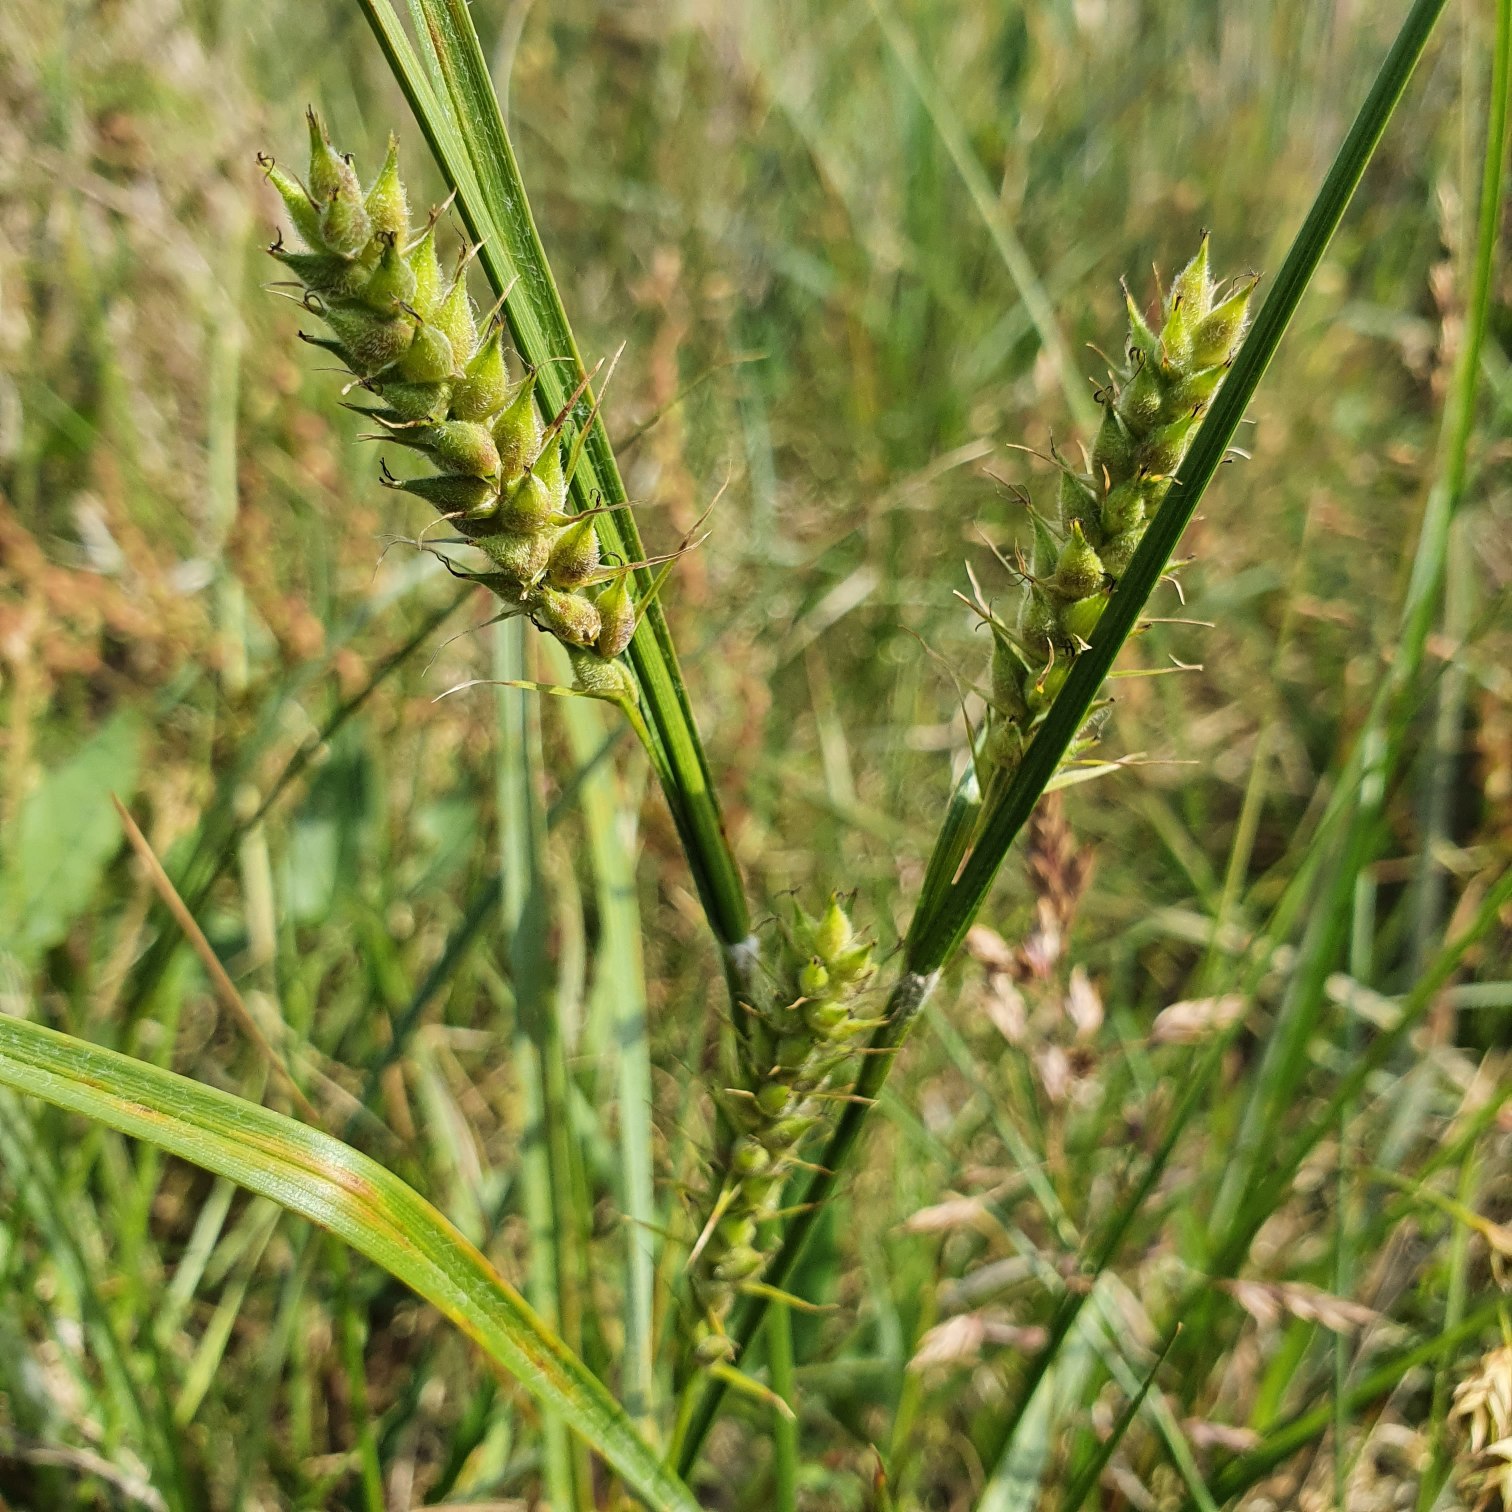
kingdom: Plantae
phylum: Tracheophyta
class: Liliopsida
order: Poales
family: Cyperaceae
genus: Carex
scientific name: Carex hirta
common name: Håret star
